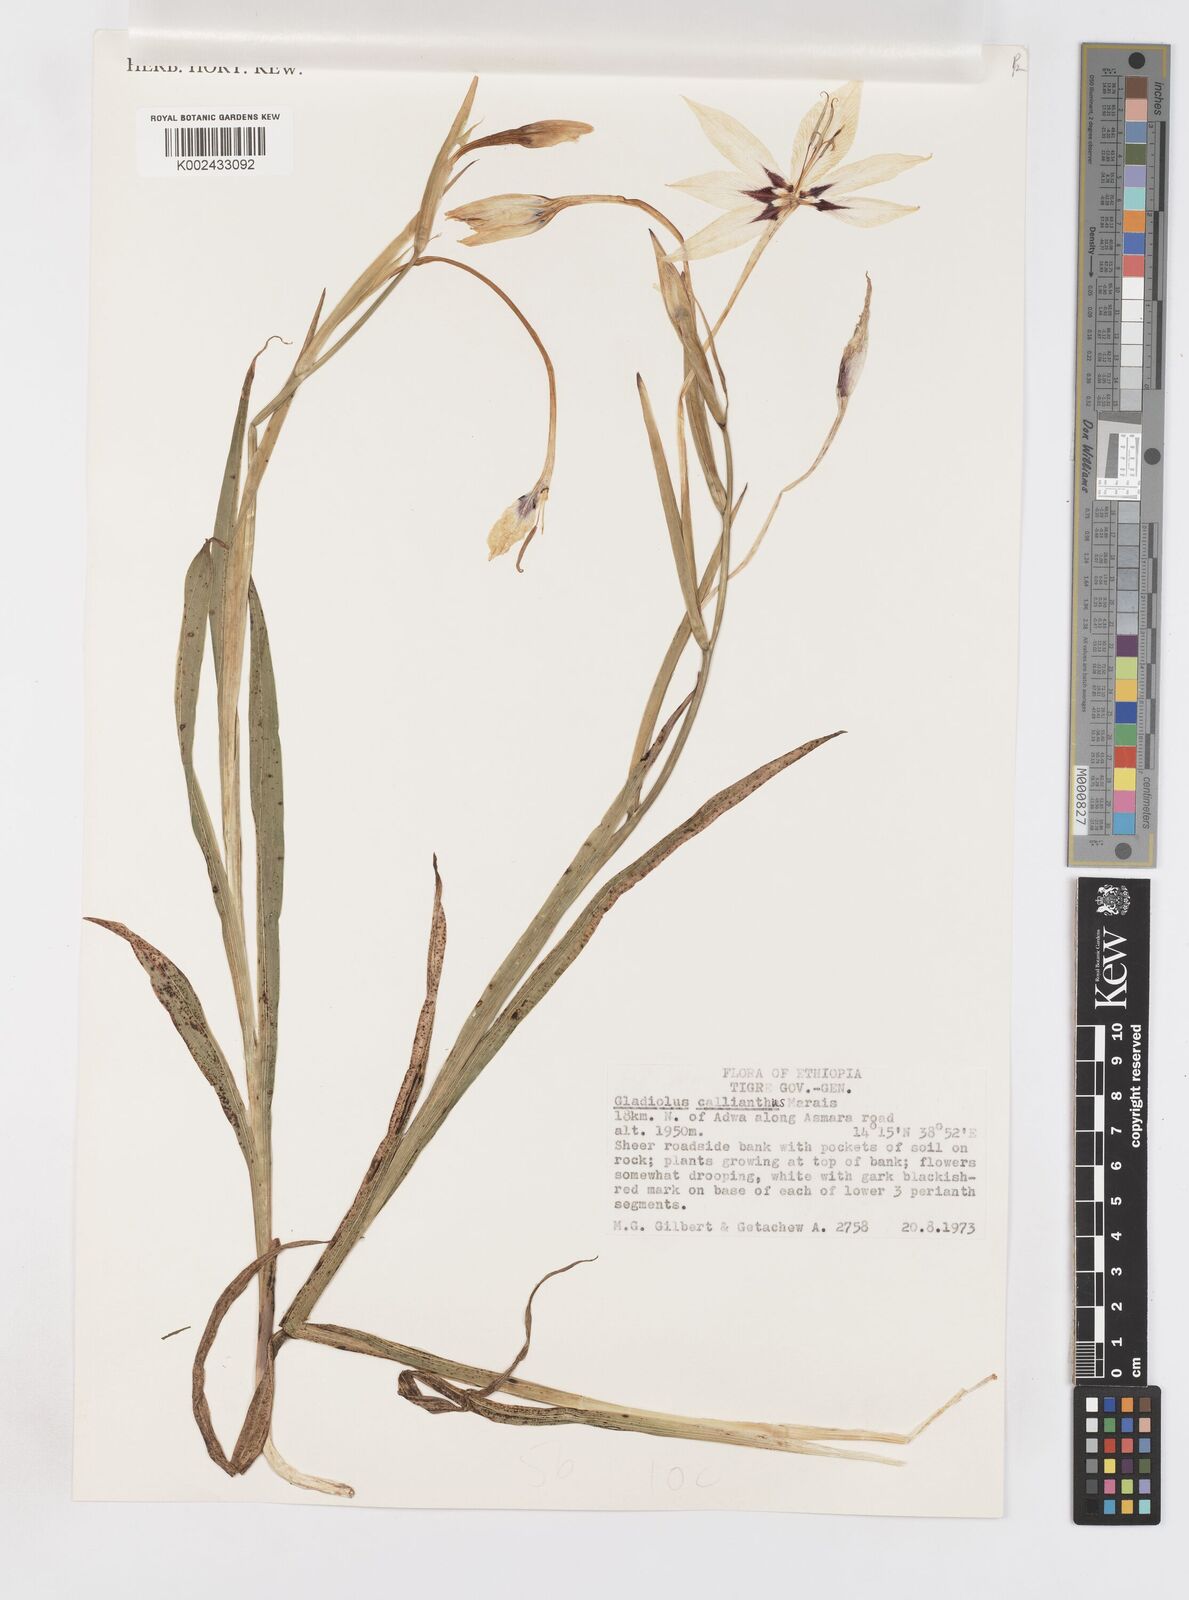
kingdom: Plantae
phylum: Tracheophyta
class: Liliopsida
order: Asparagales
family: Iridaceae
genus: Gladiolus
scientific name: Gladiolus murielae
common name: Acidanthera
